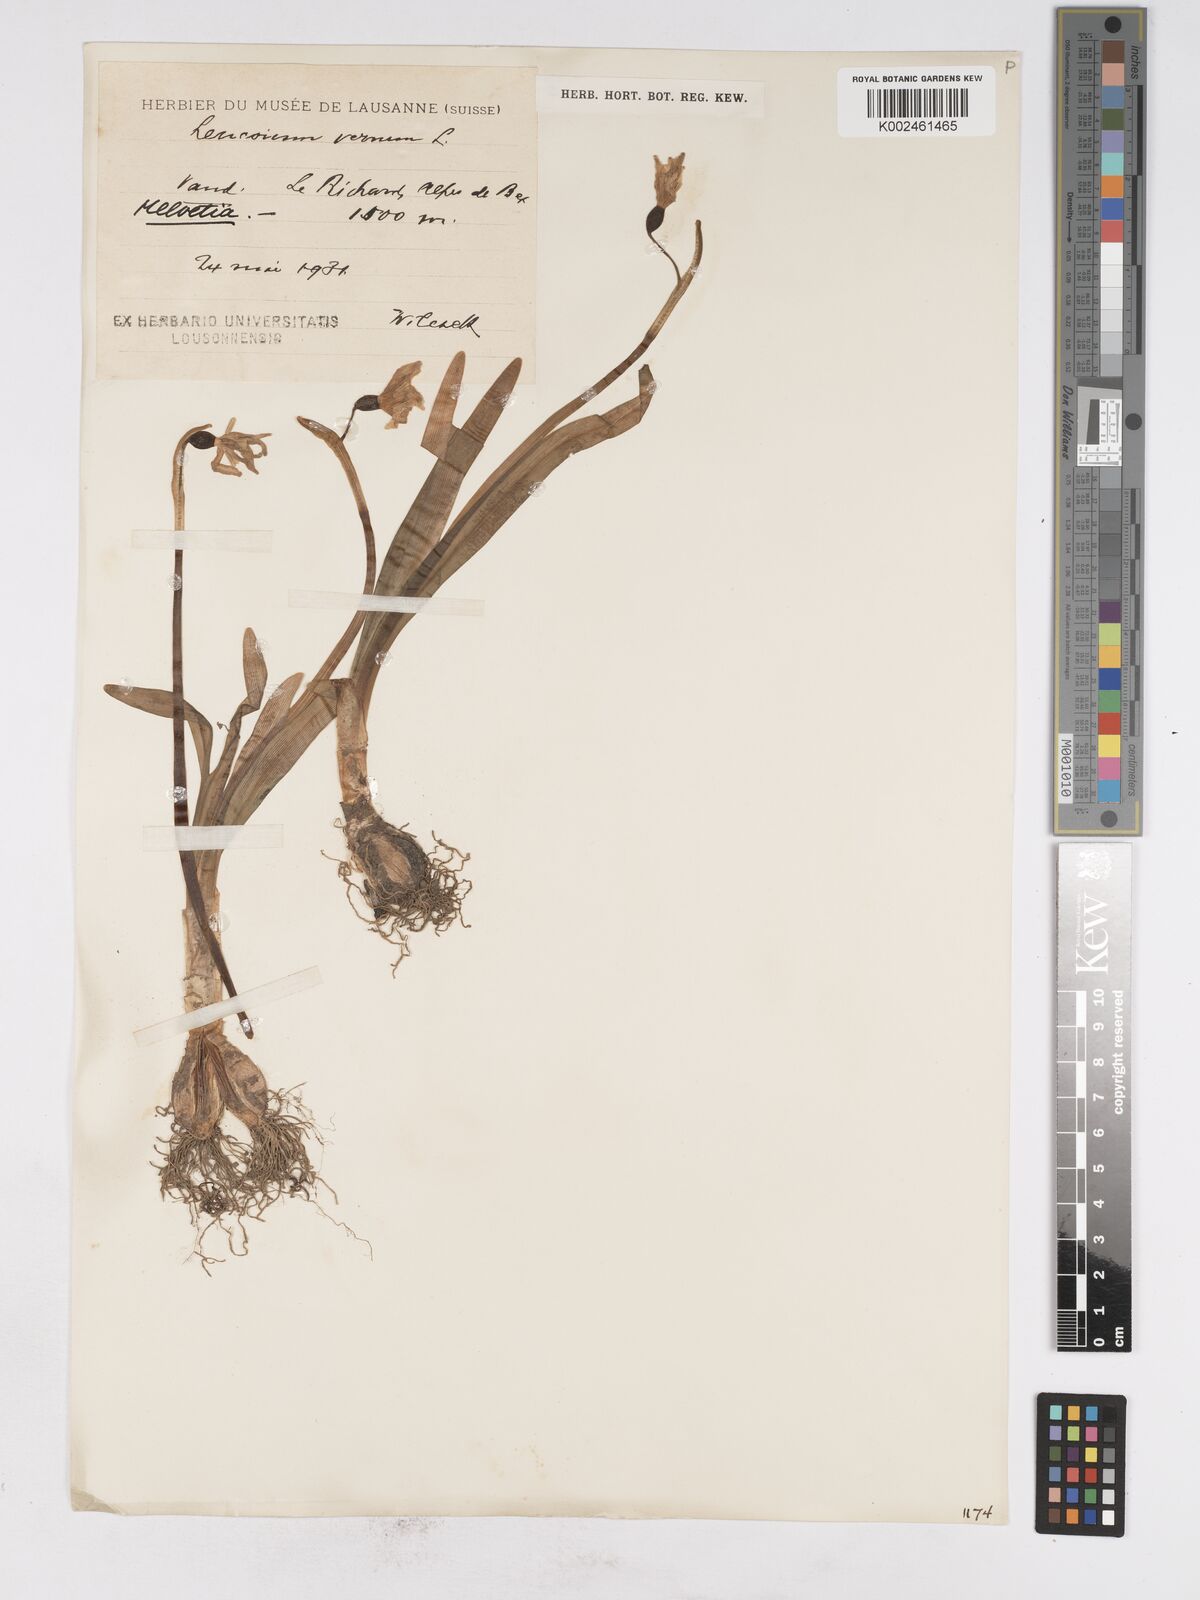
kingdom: Plantae
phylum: Tracheophyta
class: Liliopsida
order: Asparagales
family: Amaryllidaceae
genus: Leucojum
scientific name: Leucojum vernum
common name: Spring snowflake
